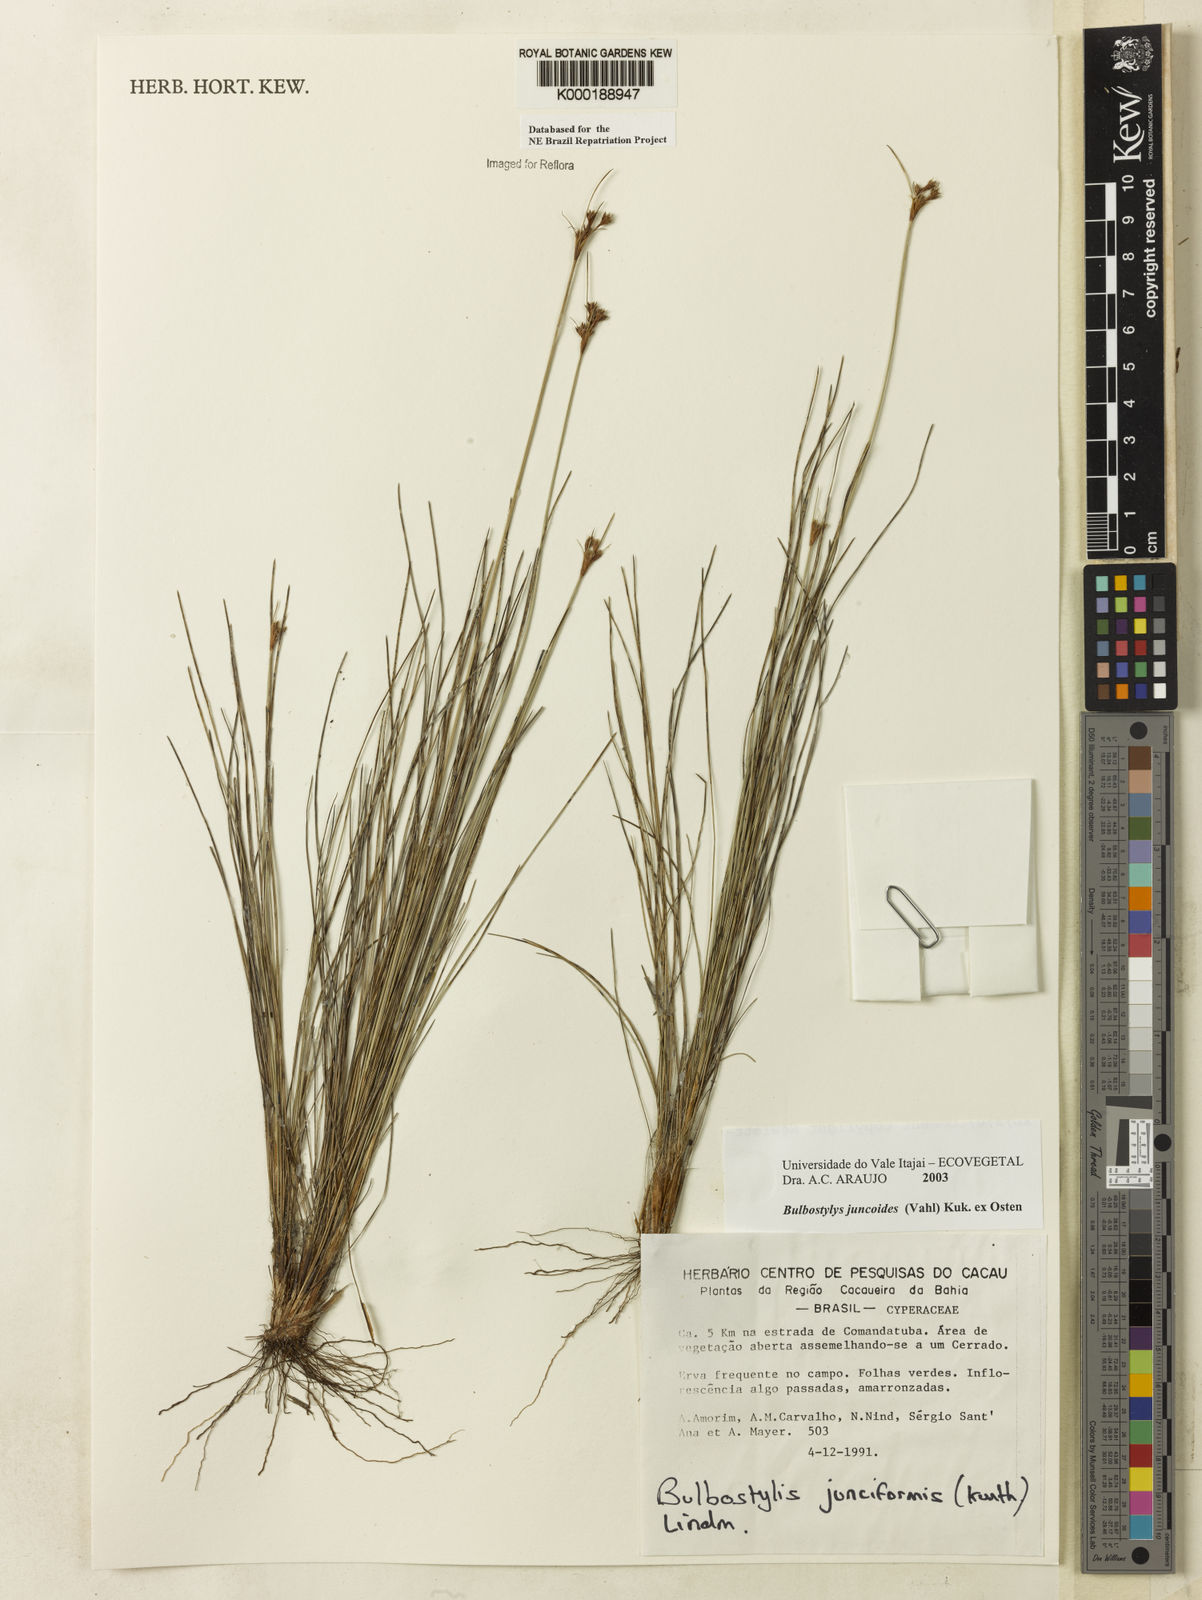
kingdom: Plantae
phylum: Tracheophyta
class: Liliopsida
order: Poales
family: Cyperaceae
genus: Bulbostylis
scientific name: Bulbostylis
